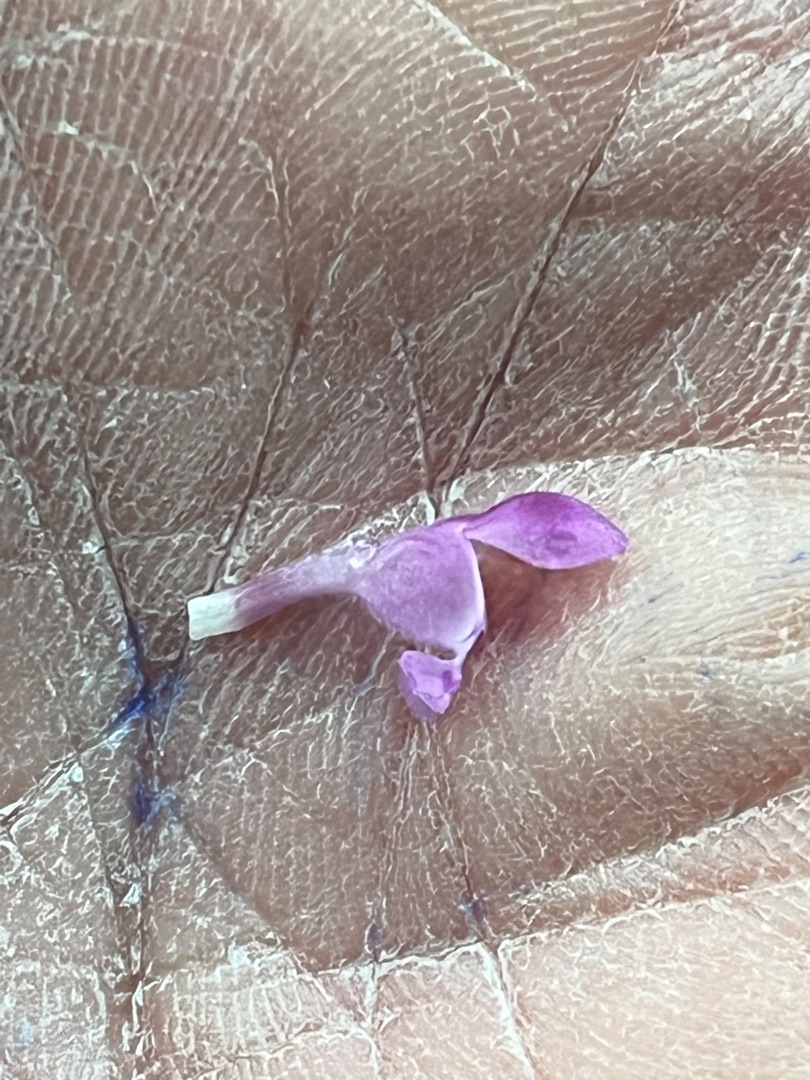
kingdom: Plantae
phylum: Tracheophyta
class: Magnoliopsida
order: Lamiales
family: Lamiaceae
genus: Lamium
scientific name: Lamium hybridum
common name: Fliget tvetand
